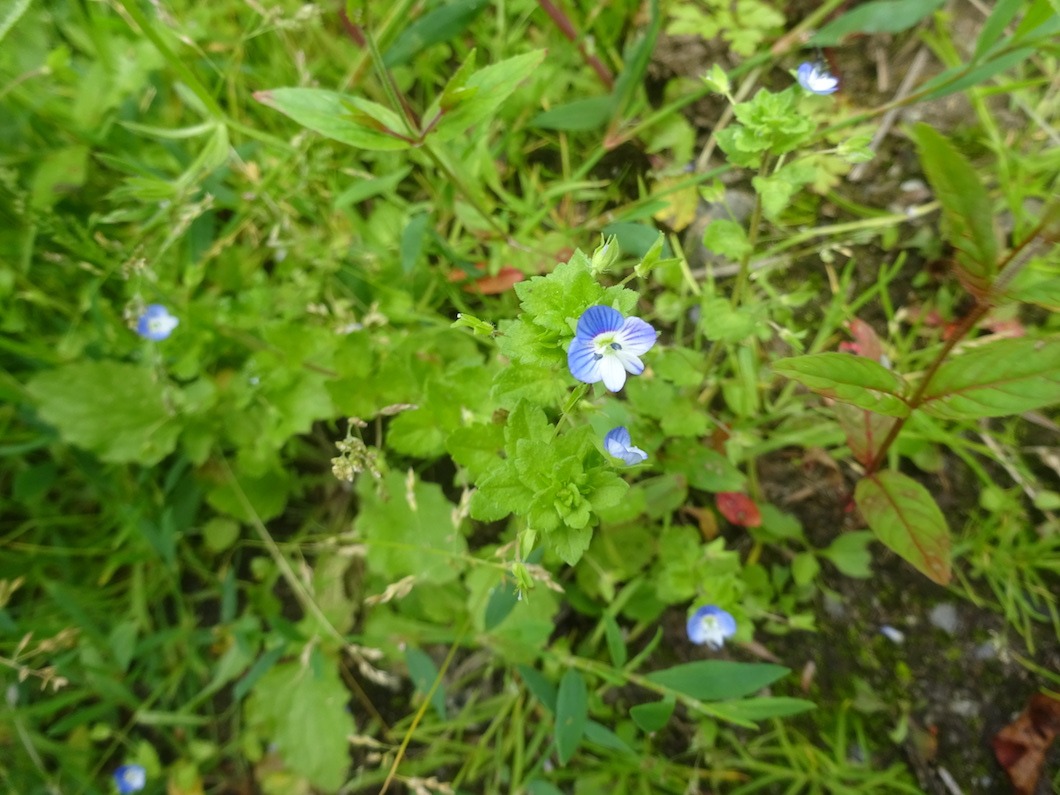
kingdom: Plantae
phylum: Tracheophyta
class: Magnoliopsida
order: Lamiales
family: Plantaginaceae
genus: Veronica
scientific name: Veronica persica
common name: Storkronet ærenpris
